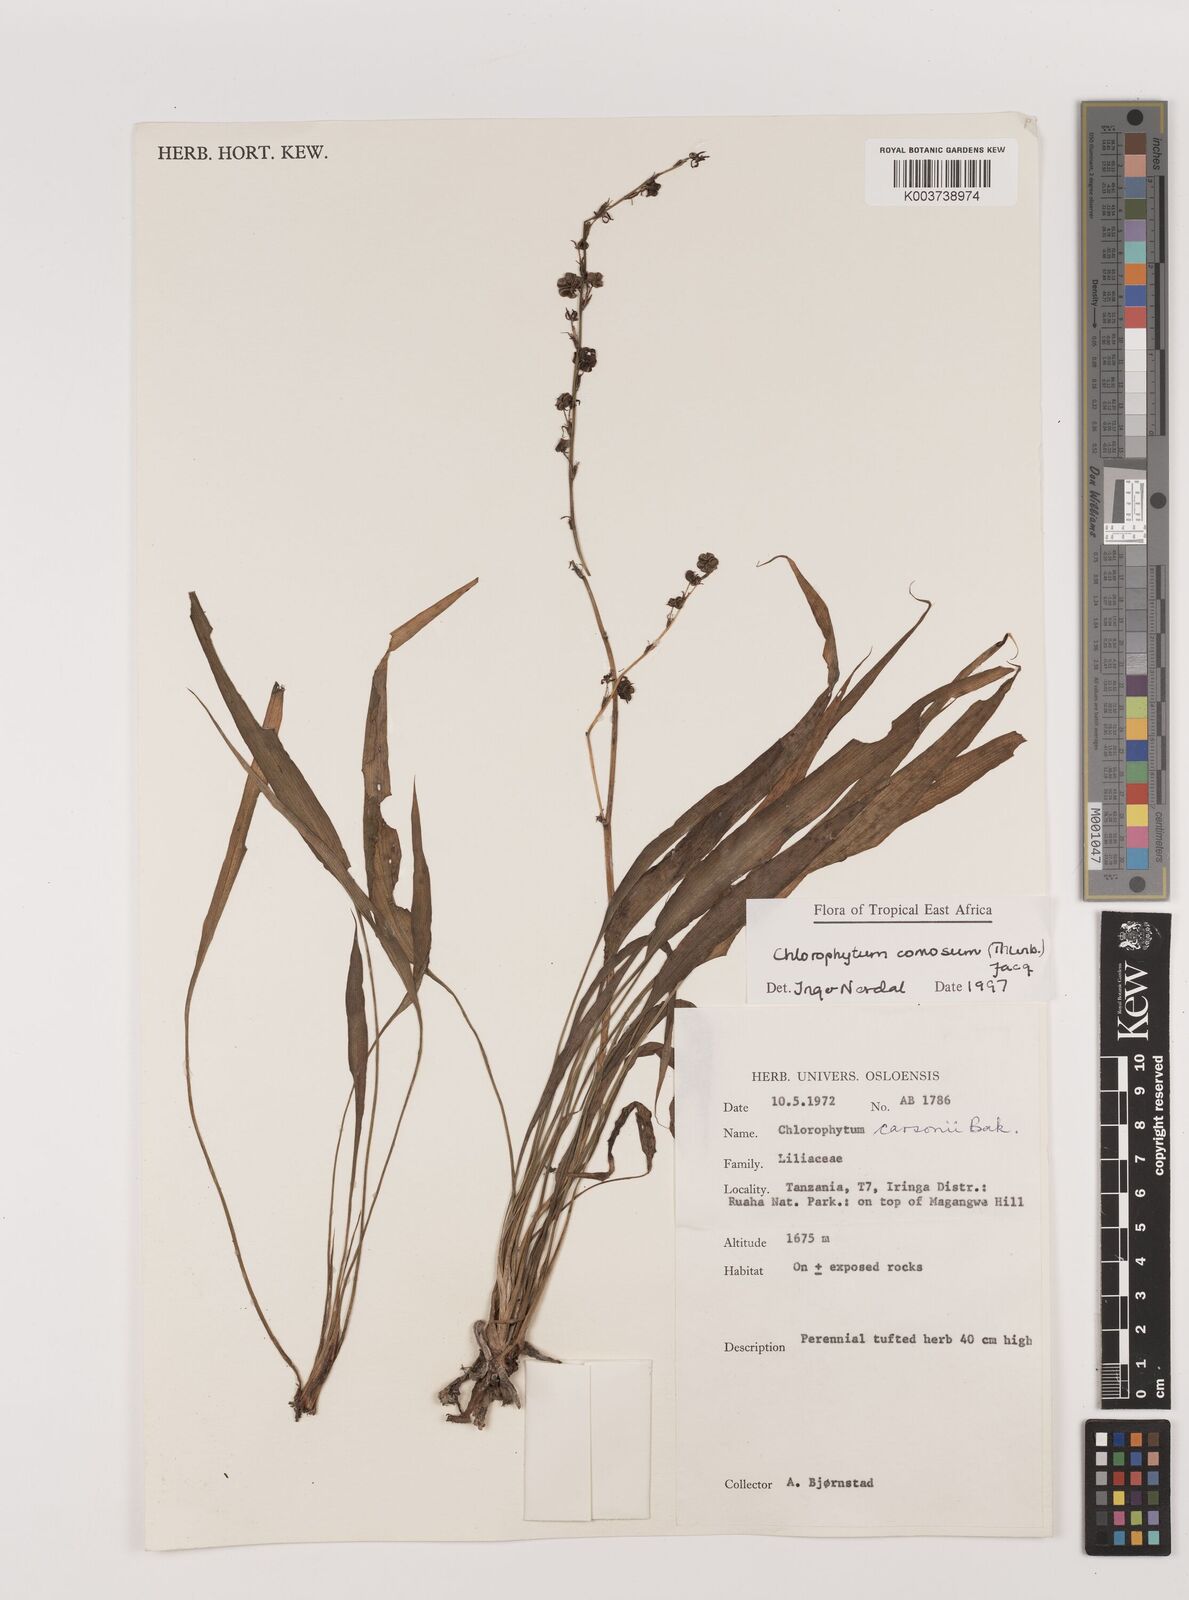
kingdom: Plantae
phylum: Tracheophyta
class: Liliopsida
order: Asparagales
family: Asparagaceae
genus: Chlorophytum
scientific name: Chlorophytum comosum
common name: Spider plant
